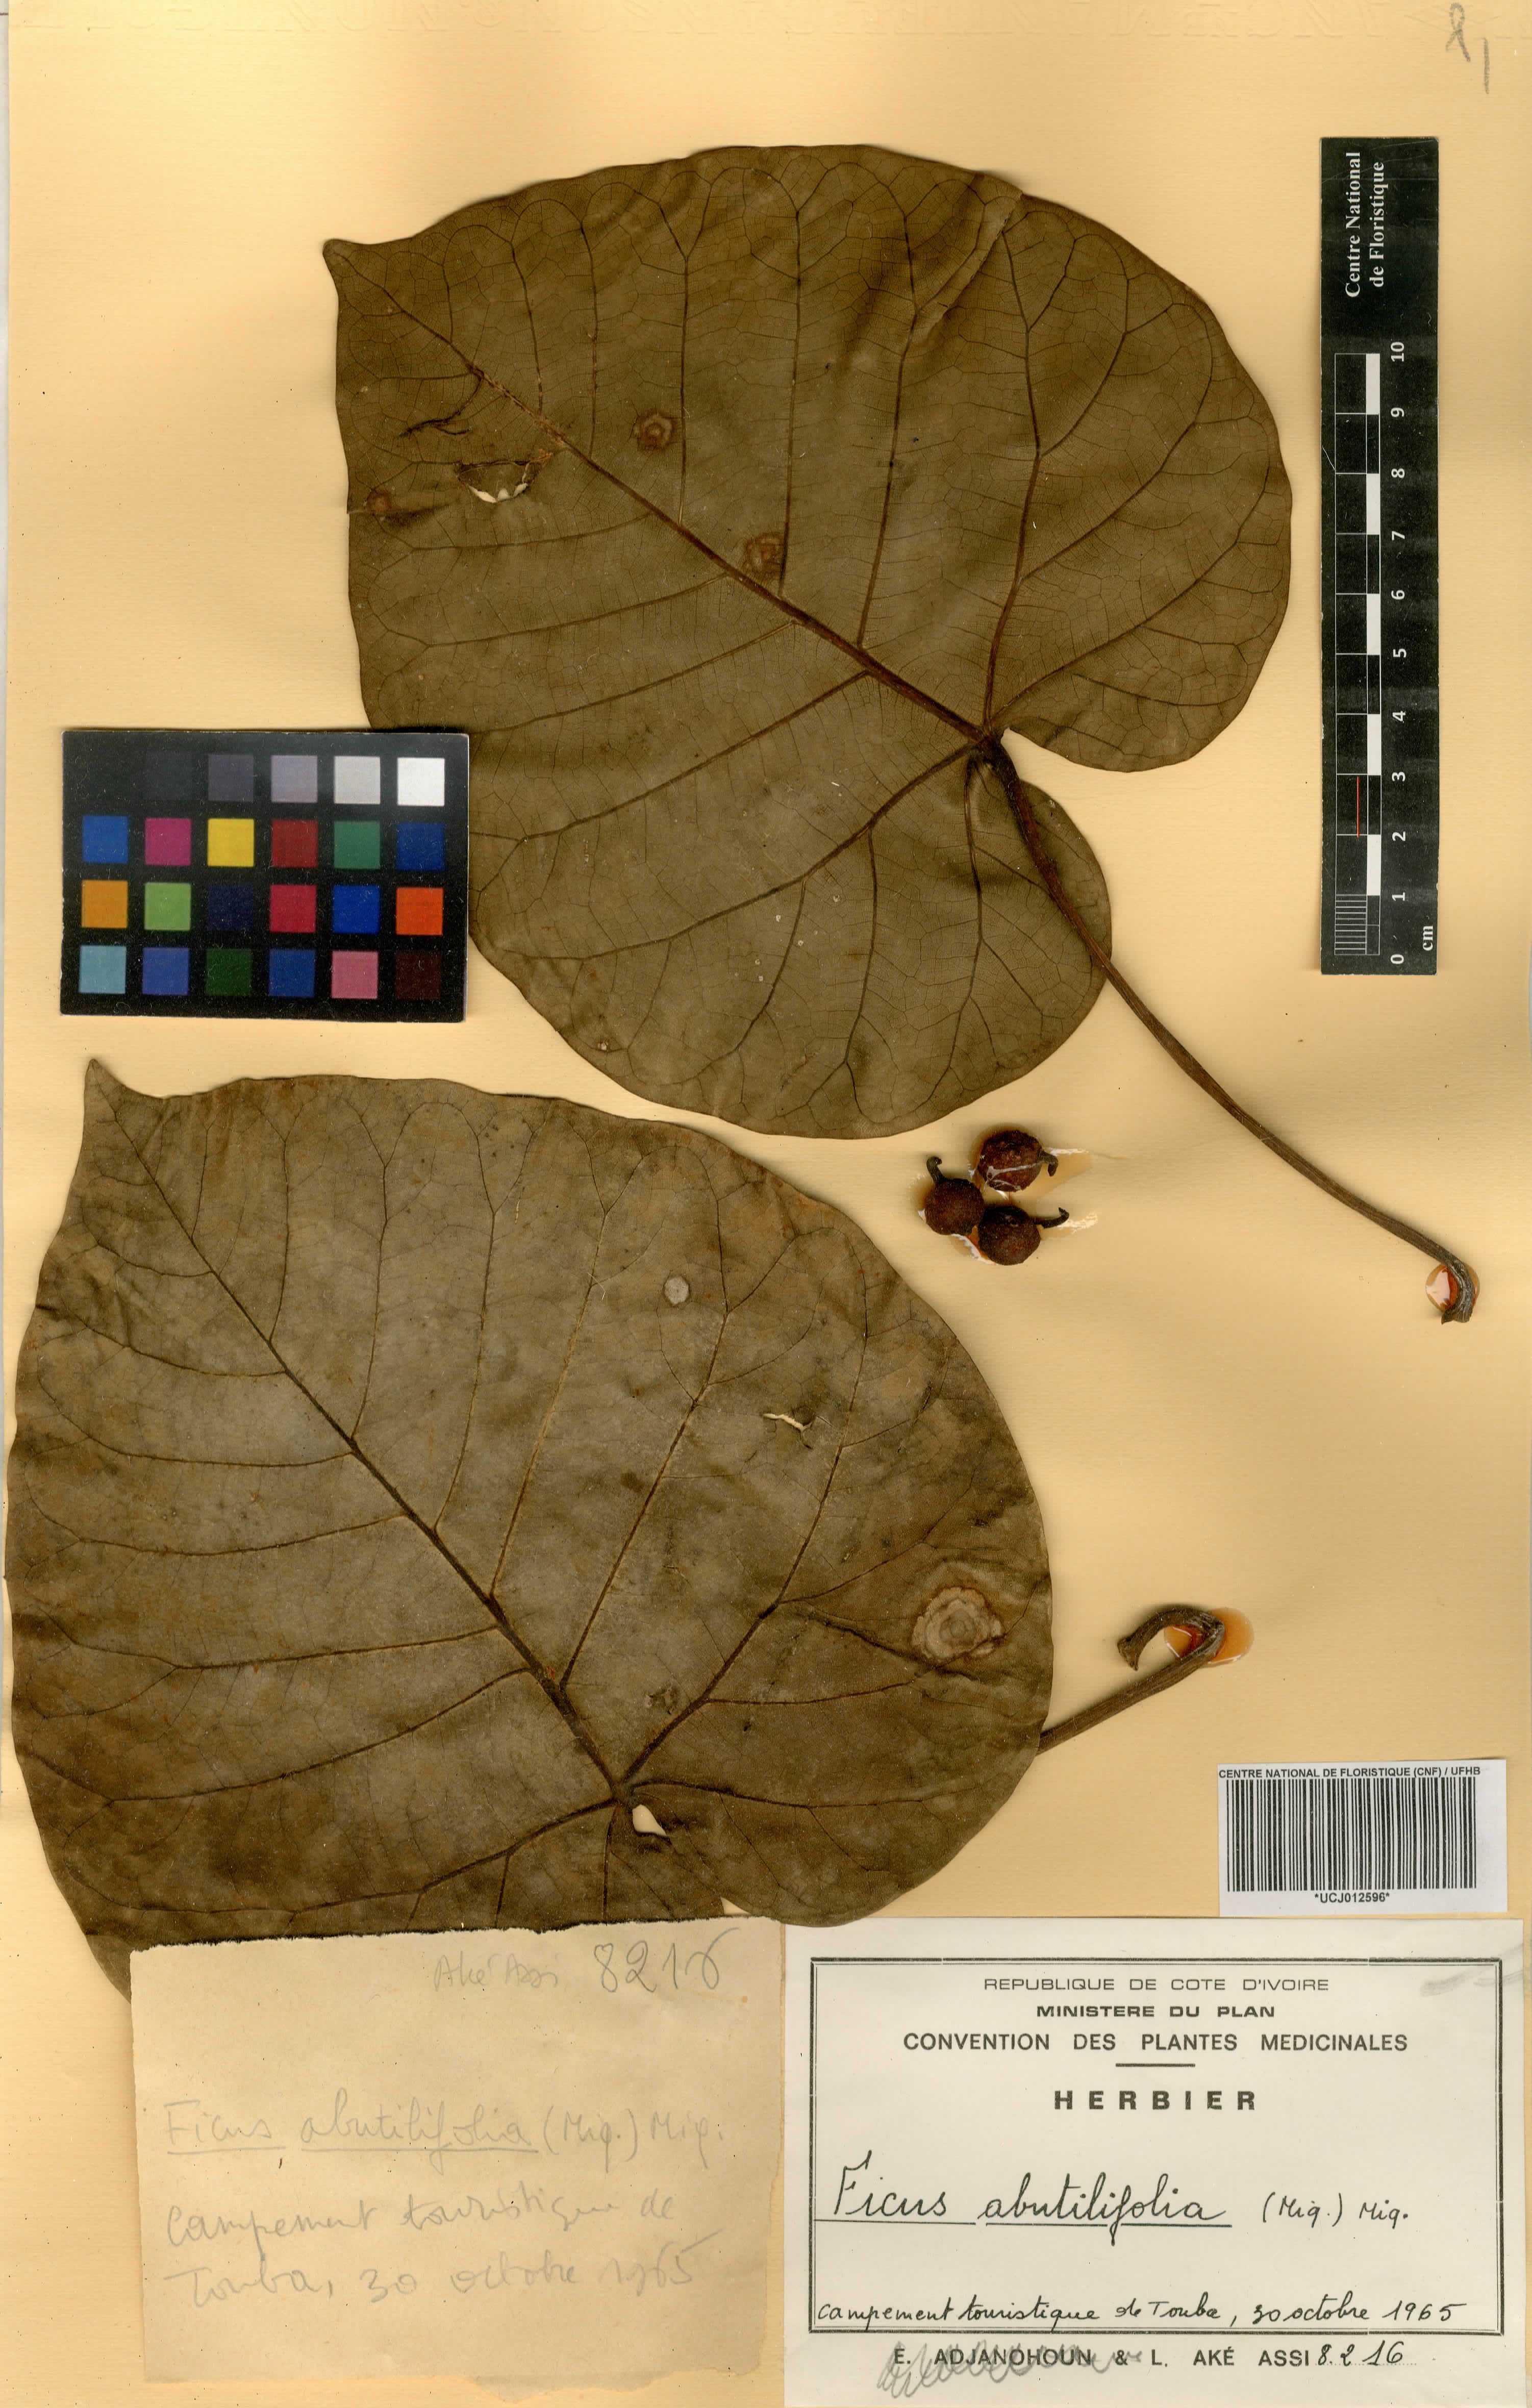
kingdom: Plantae
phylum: Tracheophyta
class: Magnoliopsida
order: Rosales
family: Moraceae
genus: Ficus
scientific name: Ficus abutilifolia
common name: Large-leaved rock fig
